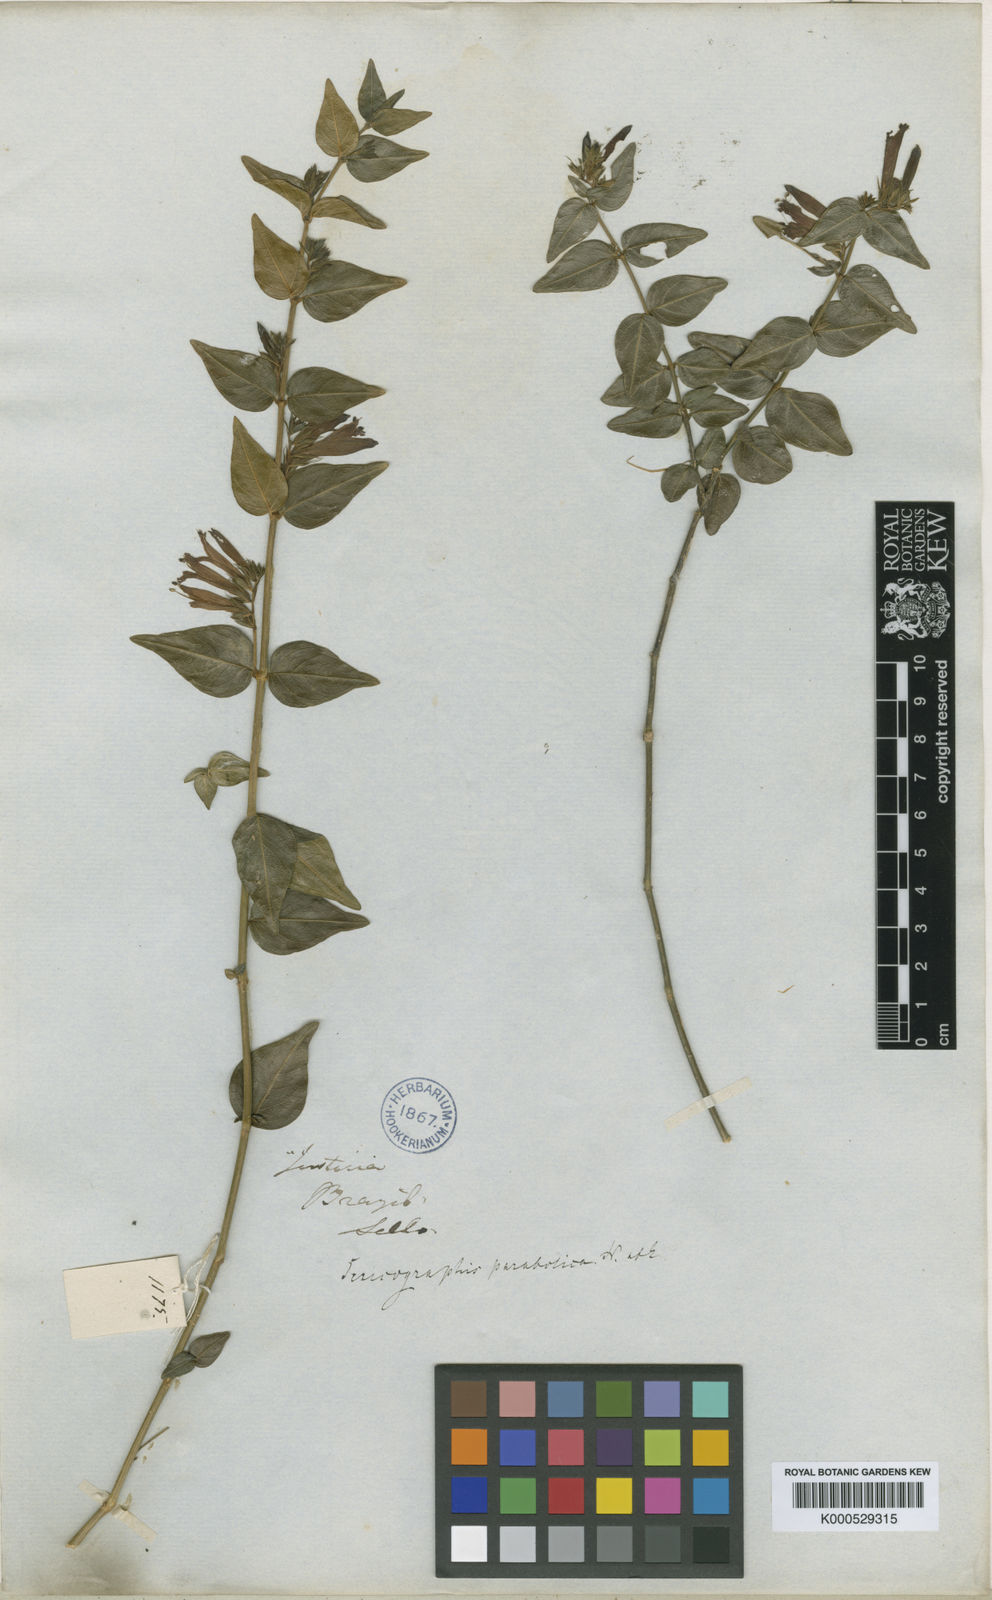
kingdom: Plantae
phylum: Tracheophyta
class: Magnoliopsida
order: Lamiales
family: Acanthaceae
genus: Justicia
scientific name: Justicia parabolica
